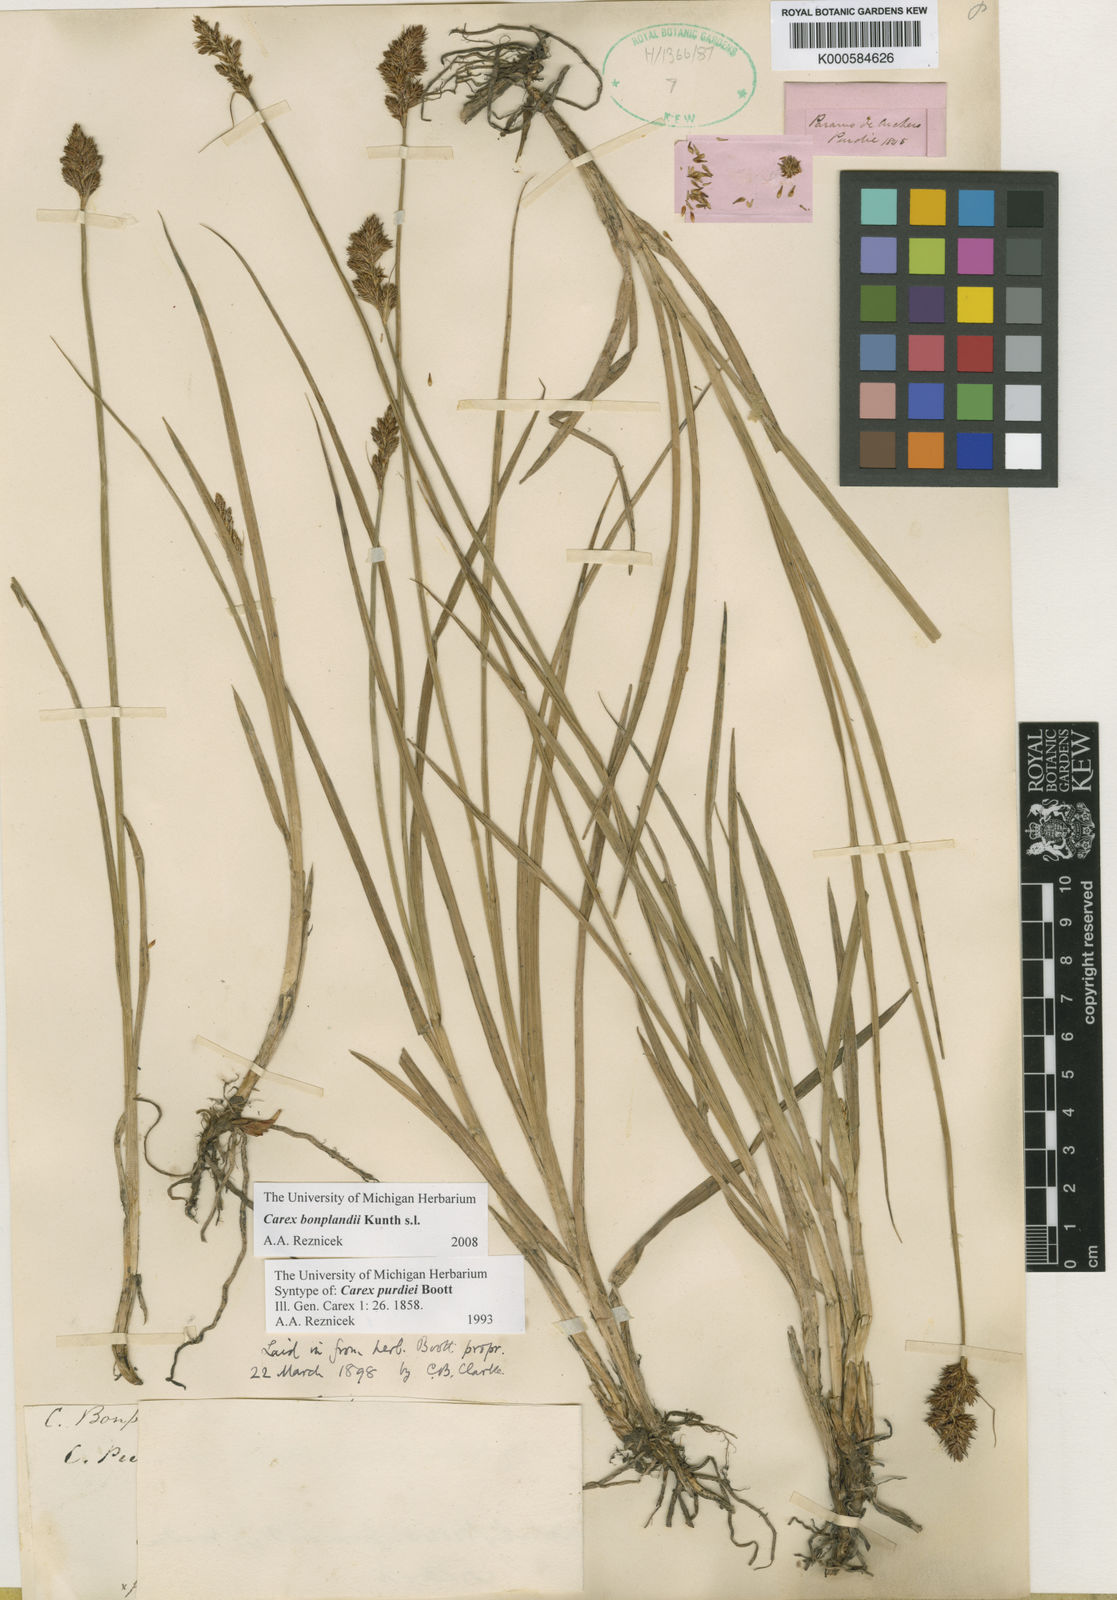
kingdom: Plantae
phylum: Tracheophyta
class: Liliopsida
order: Poales
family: Cyperaceae
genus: Carex
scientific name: Carex purdiei
